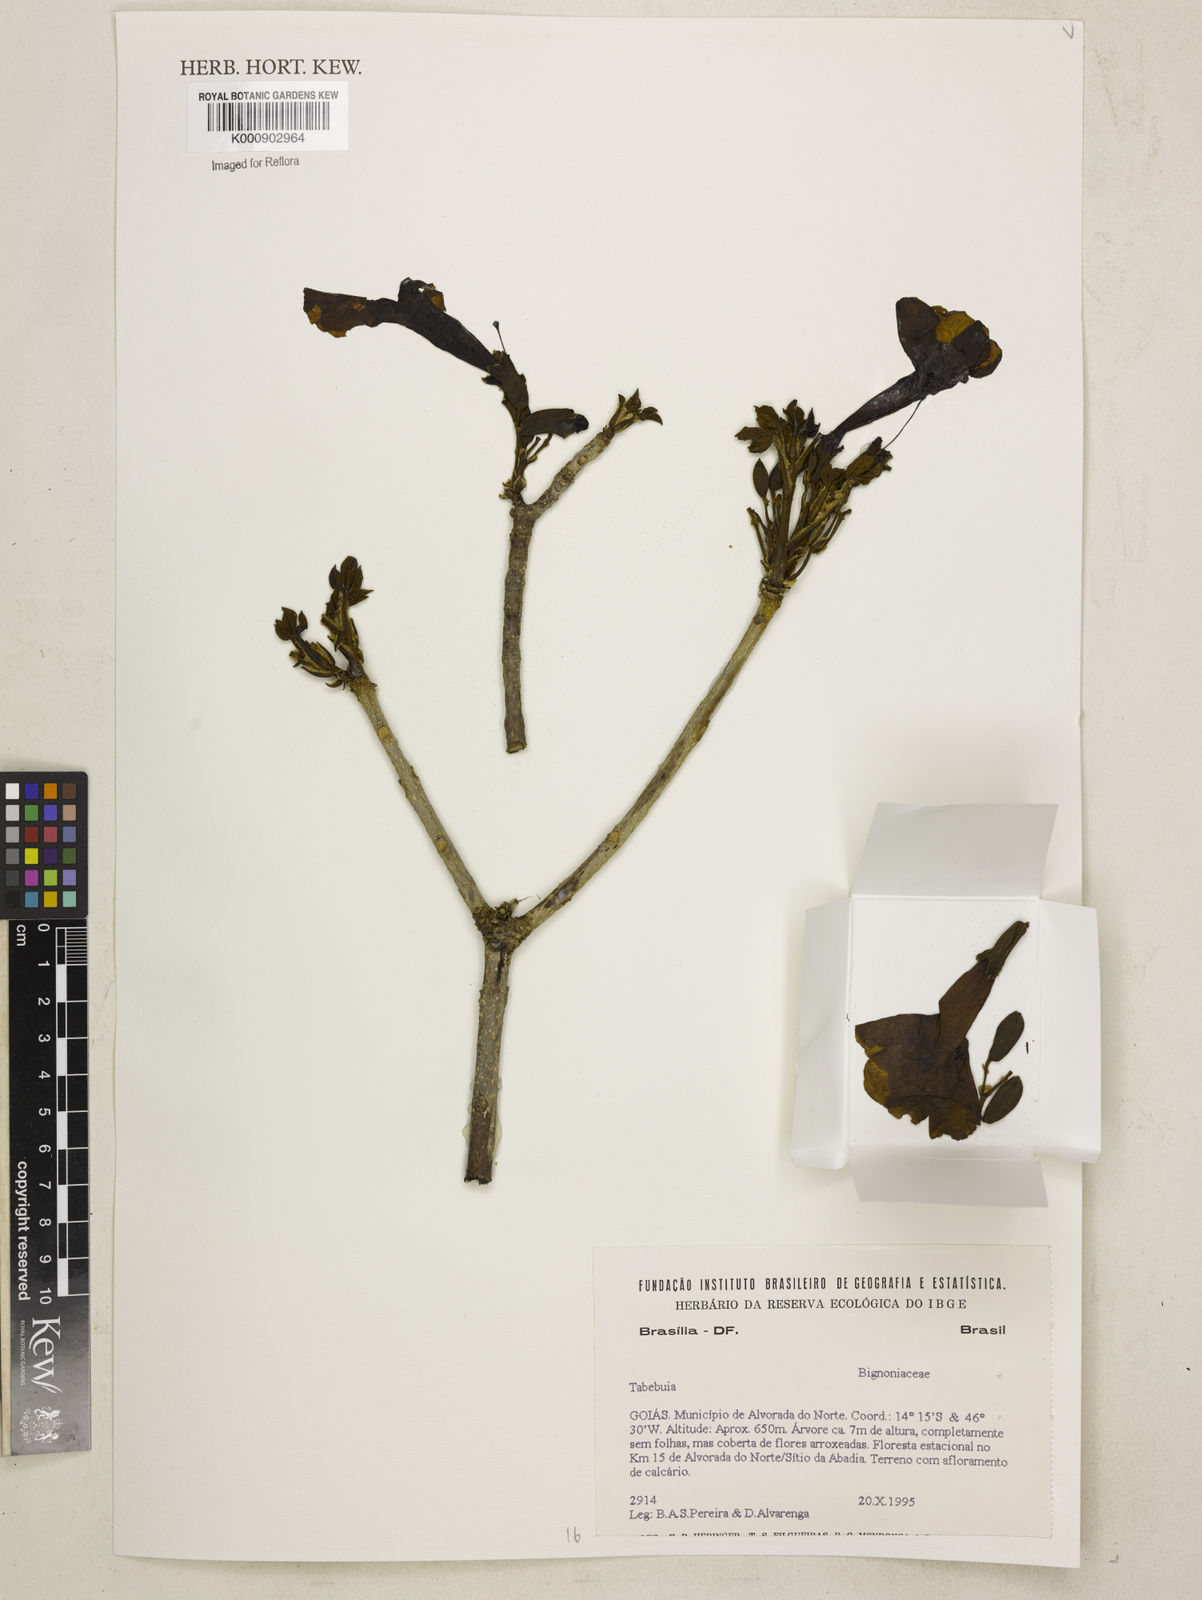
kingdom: Plantae
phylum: Tracheophyta
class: Magnoliopsida
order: Lamiales
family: Bignoniaceae
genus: Tabebuia
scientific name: Tabebuia
